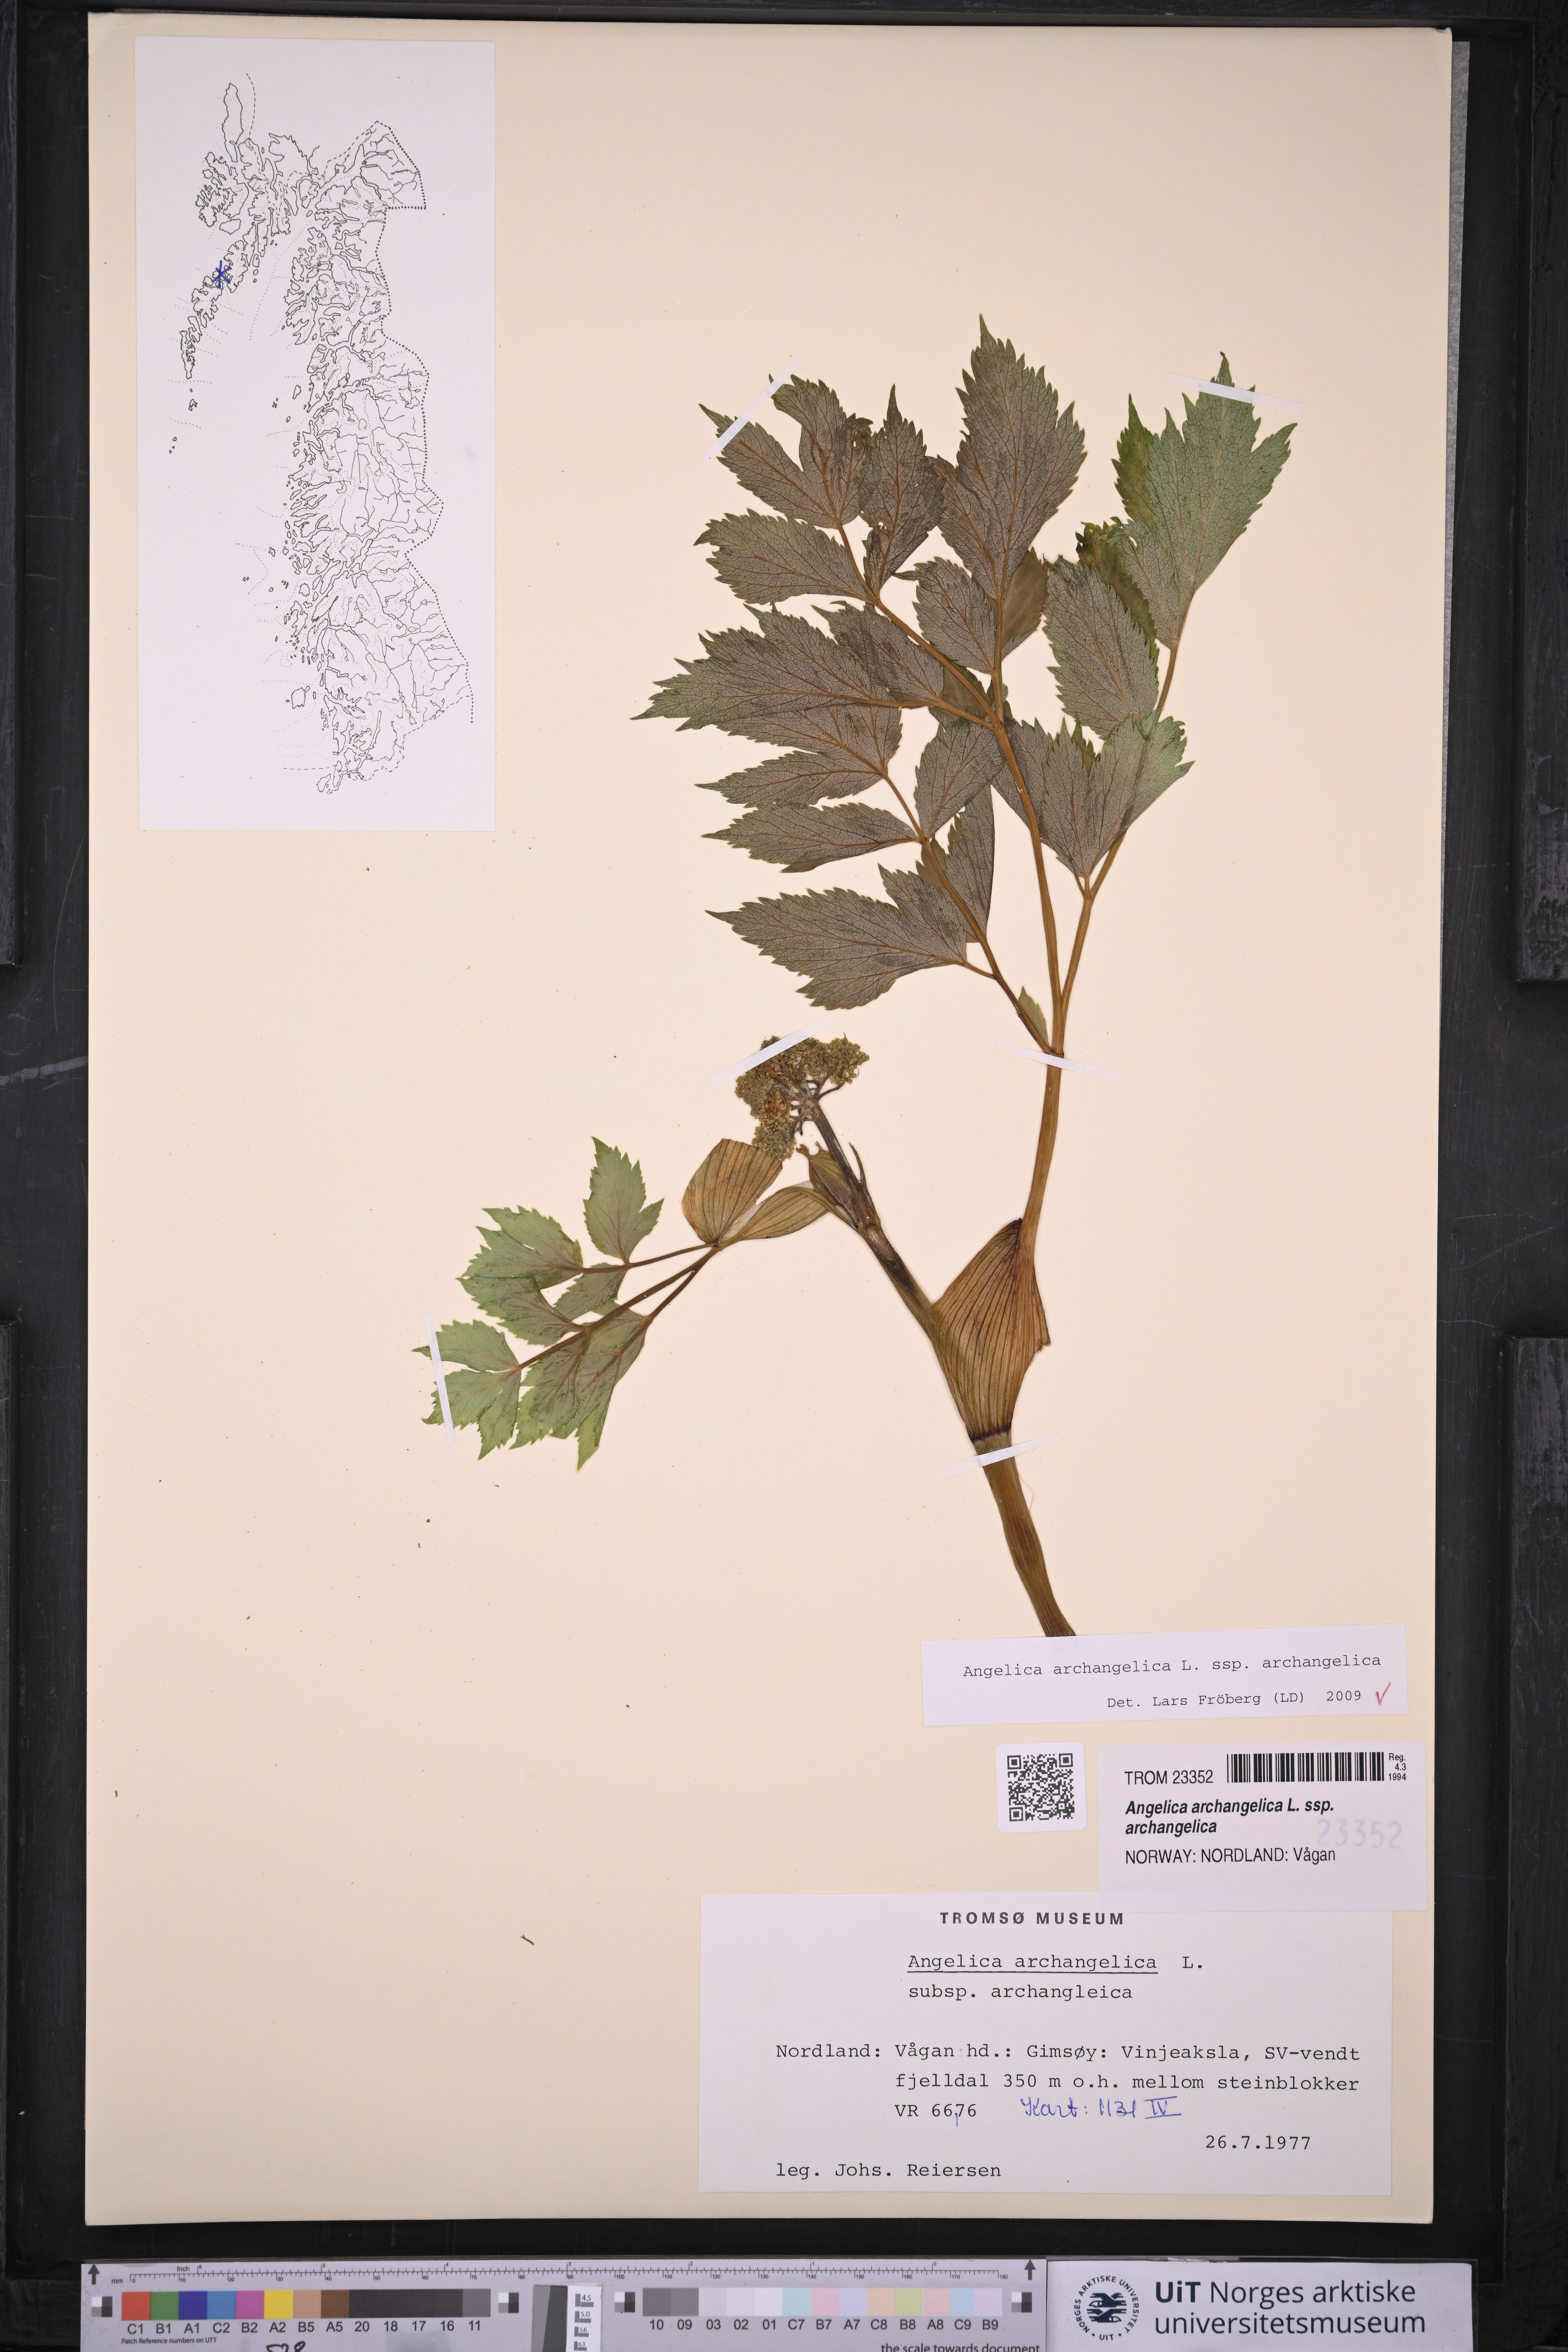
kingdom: Plantae
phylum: Tracheophyta
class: Magnoliopsida
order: Apiales
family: Apiaceae
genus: Angelica
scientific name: Angelica archangelica
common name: Garden angelica
